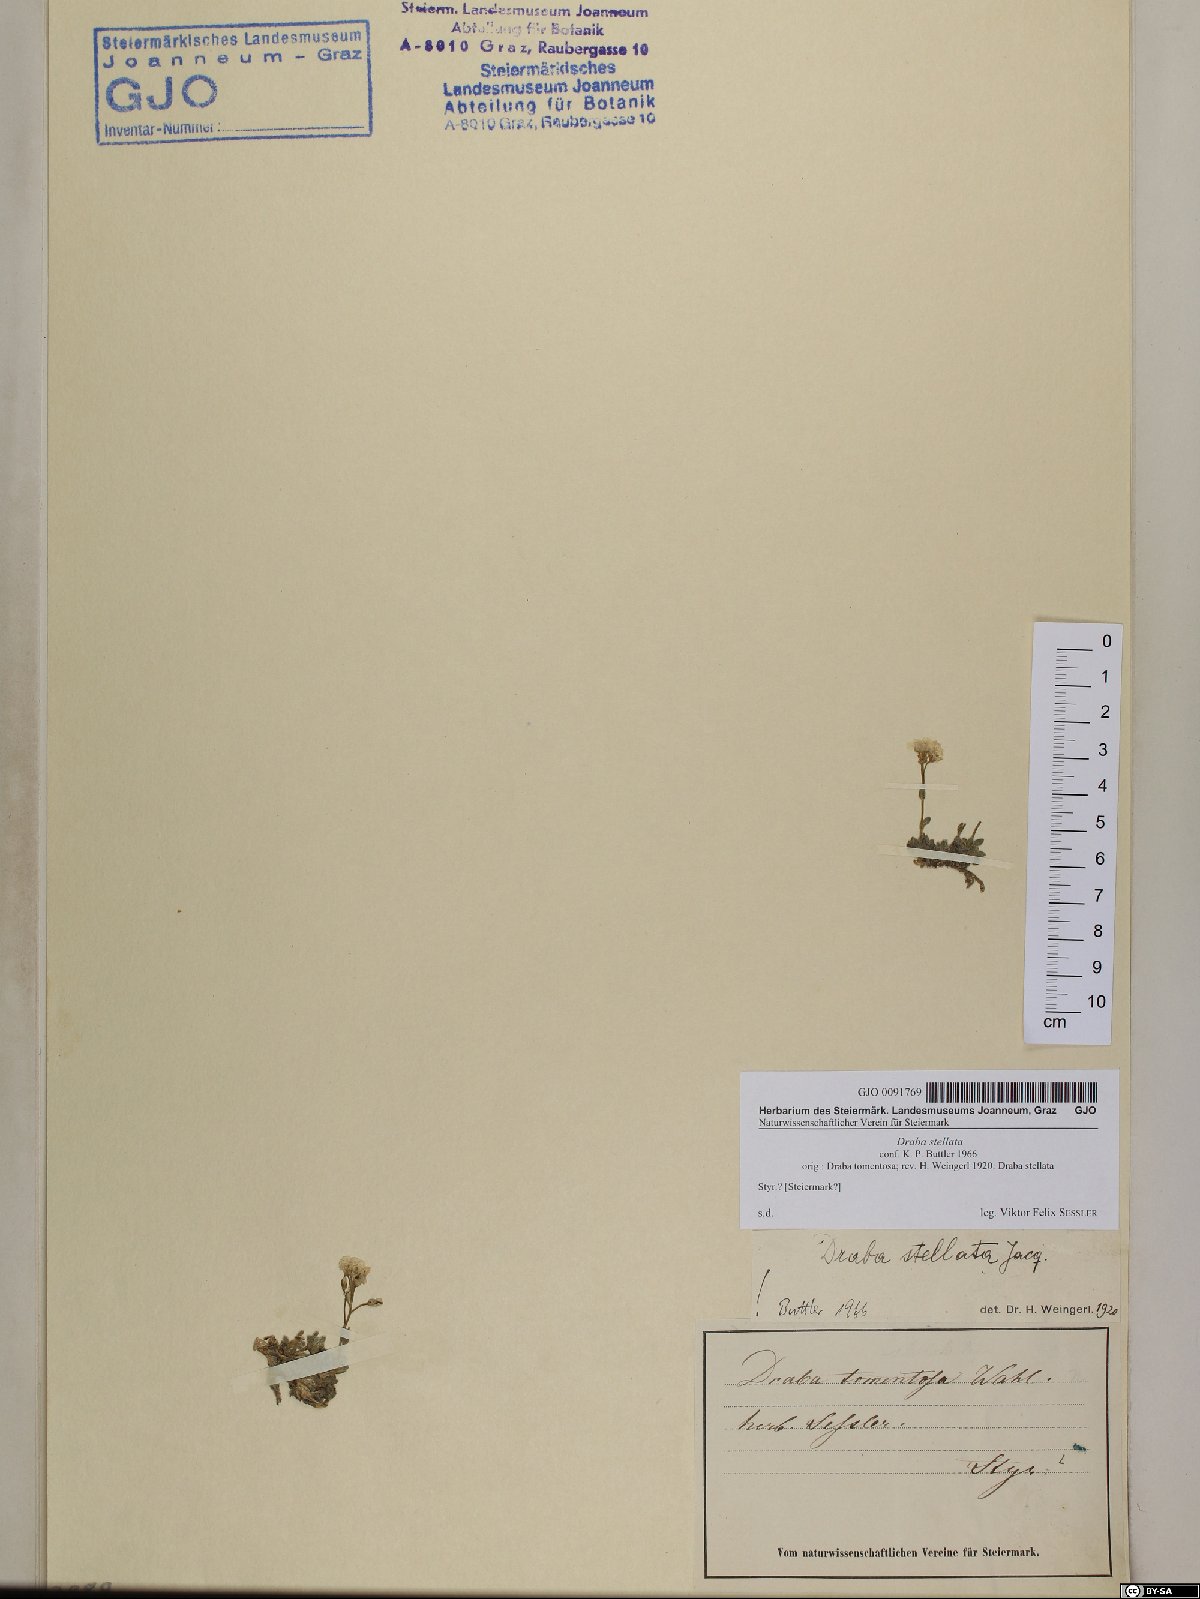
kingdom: Plantae
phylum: Tracheophyta
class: Magnoliopsida
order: Brassicales
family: Brassicaceae
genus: Draba
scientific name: Draba stellata
